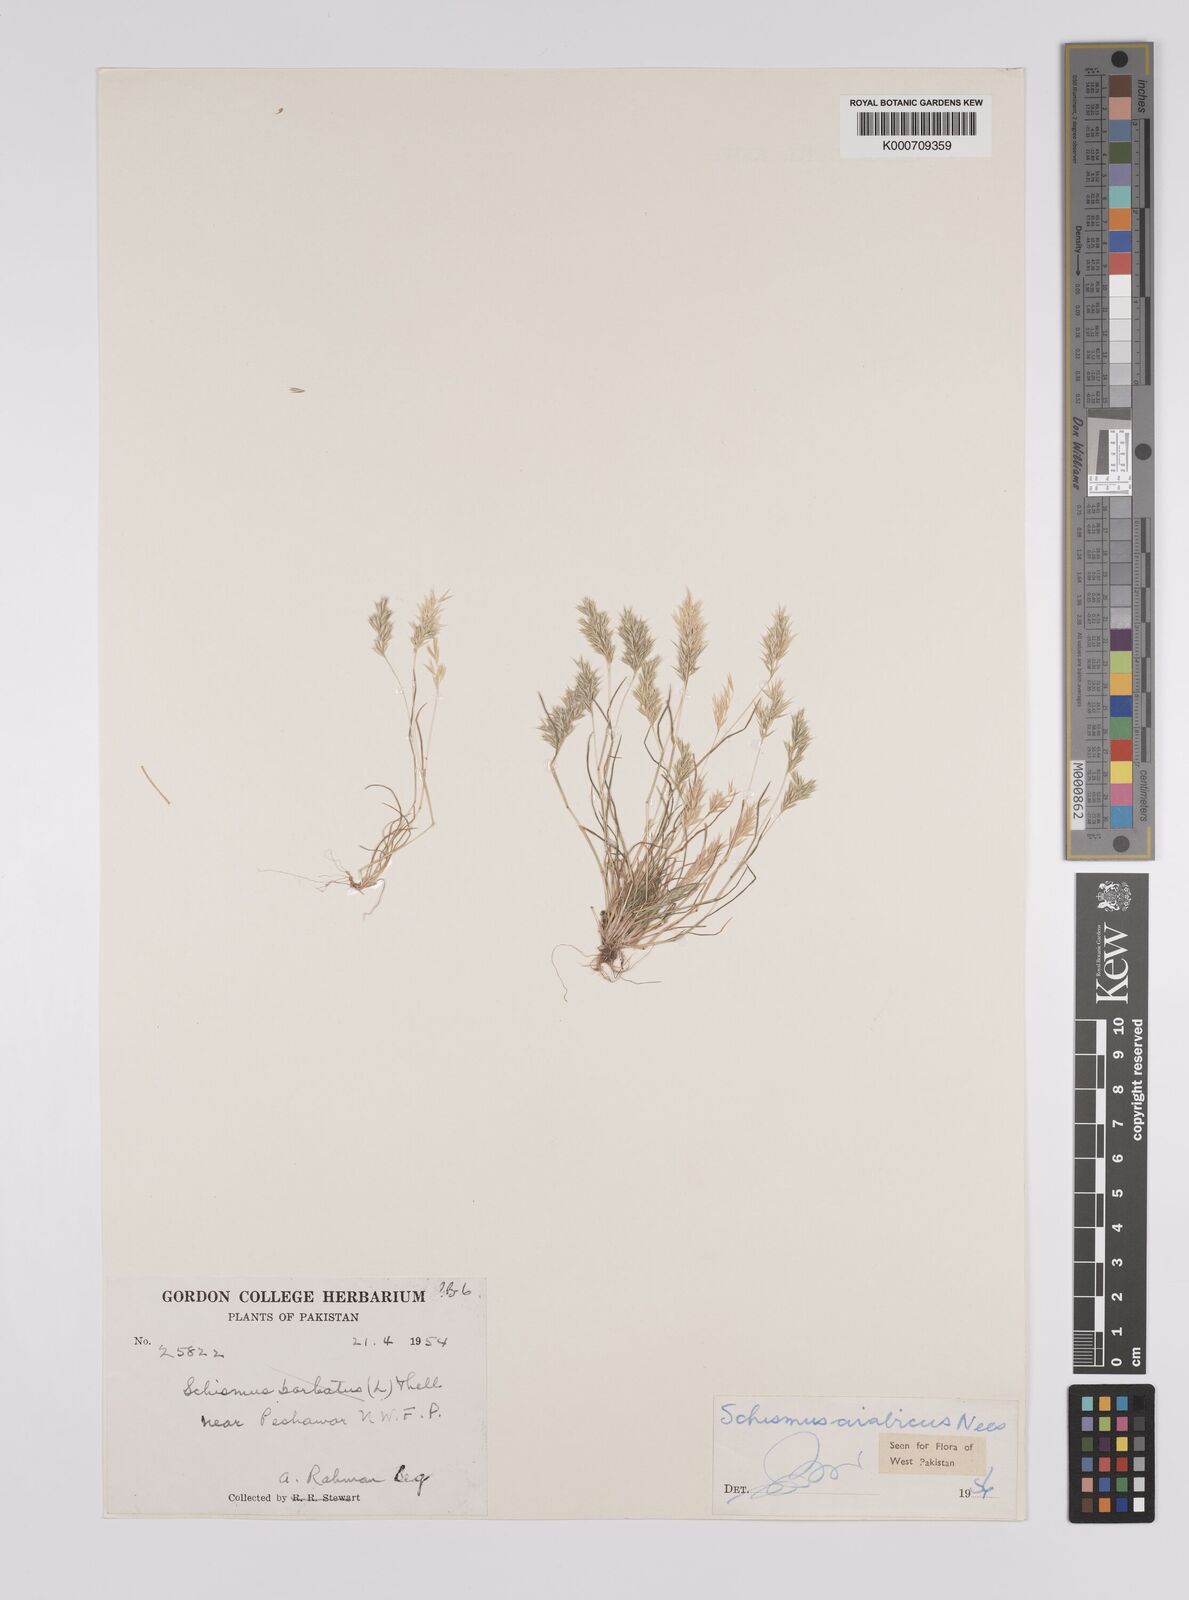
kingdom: Plantae
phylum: Tracheophyta
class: Liliopsida
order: Poales
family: Poaceae
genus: Schismus
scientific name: Schismus arabicus
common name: Arabian schismus
